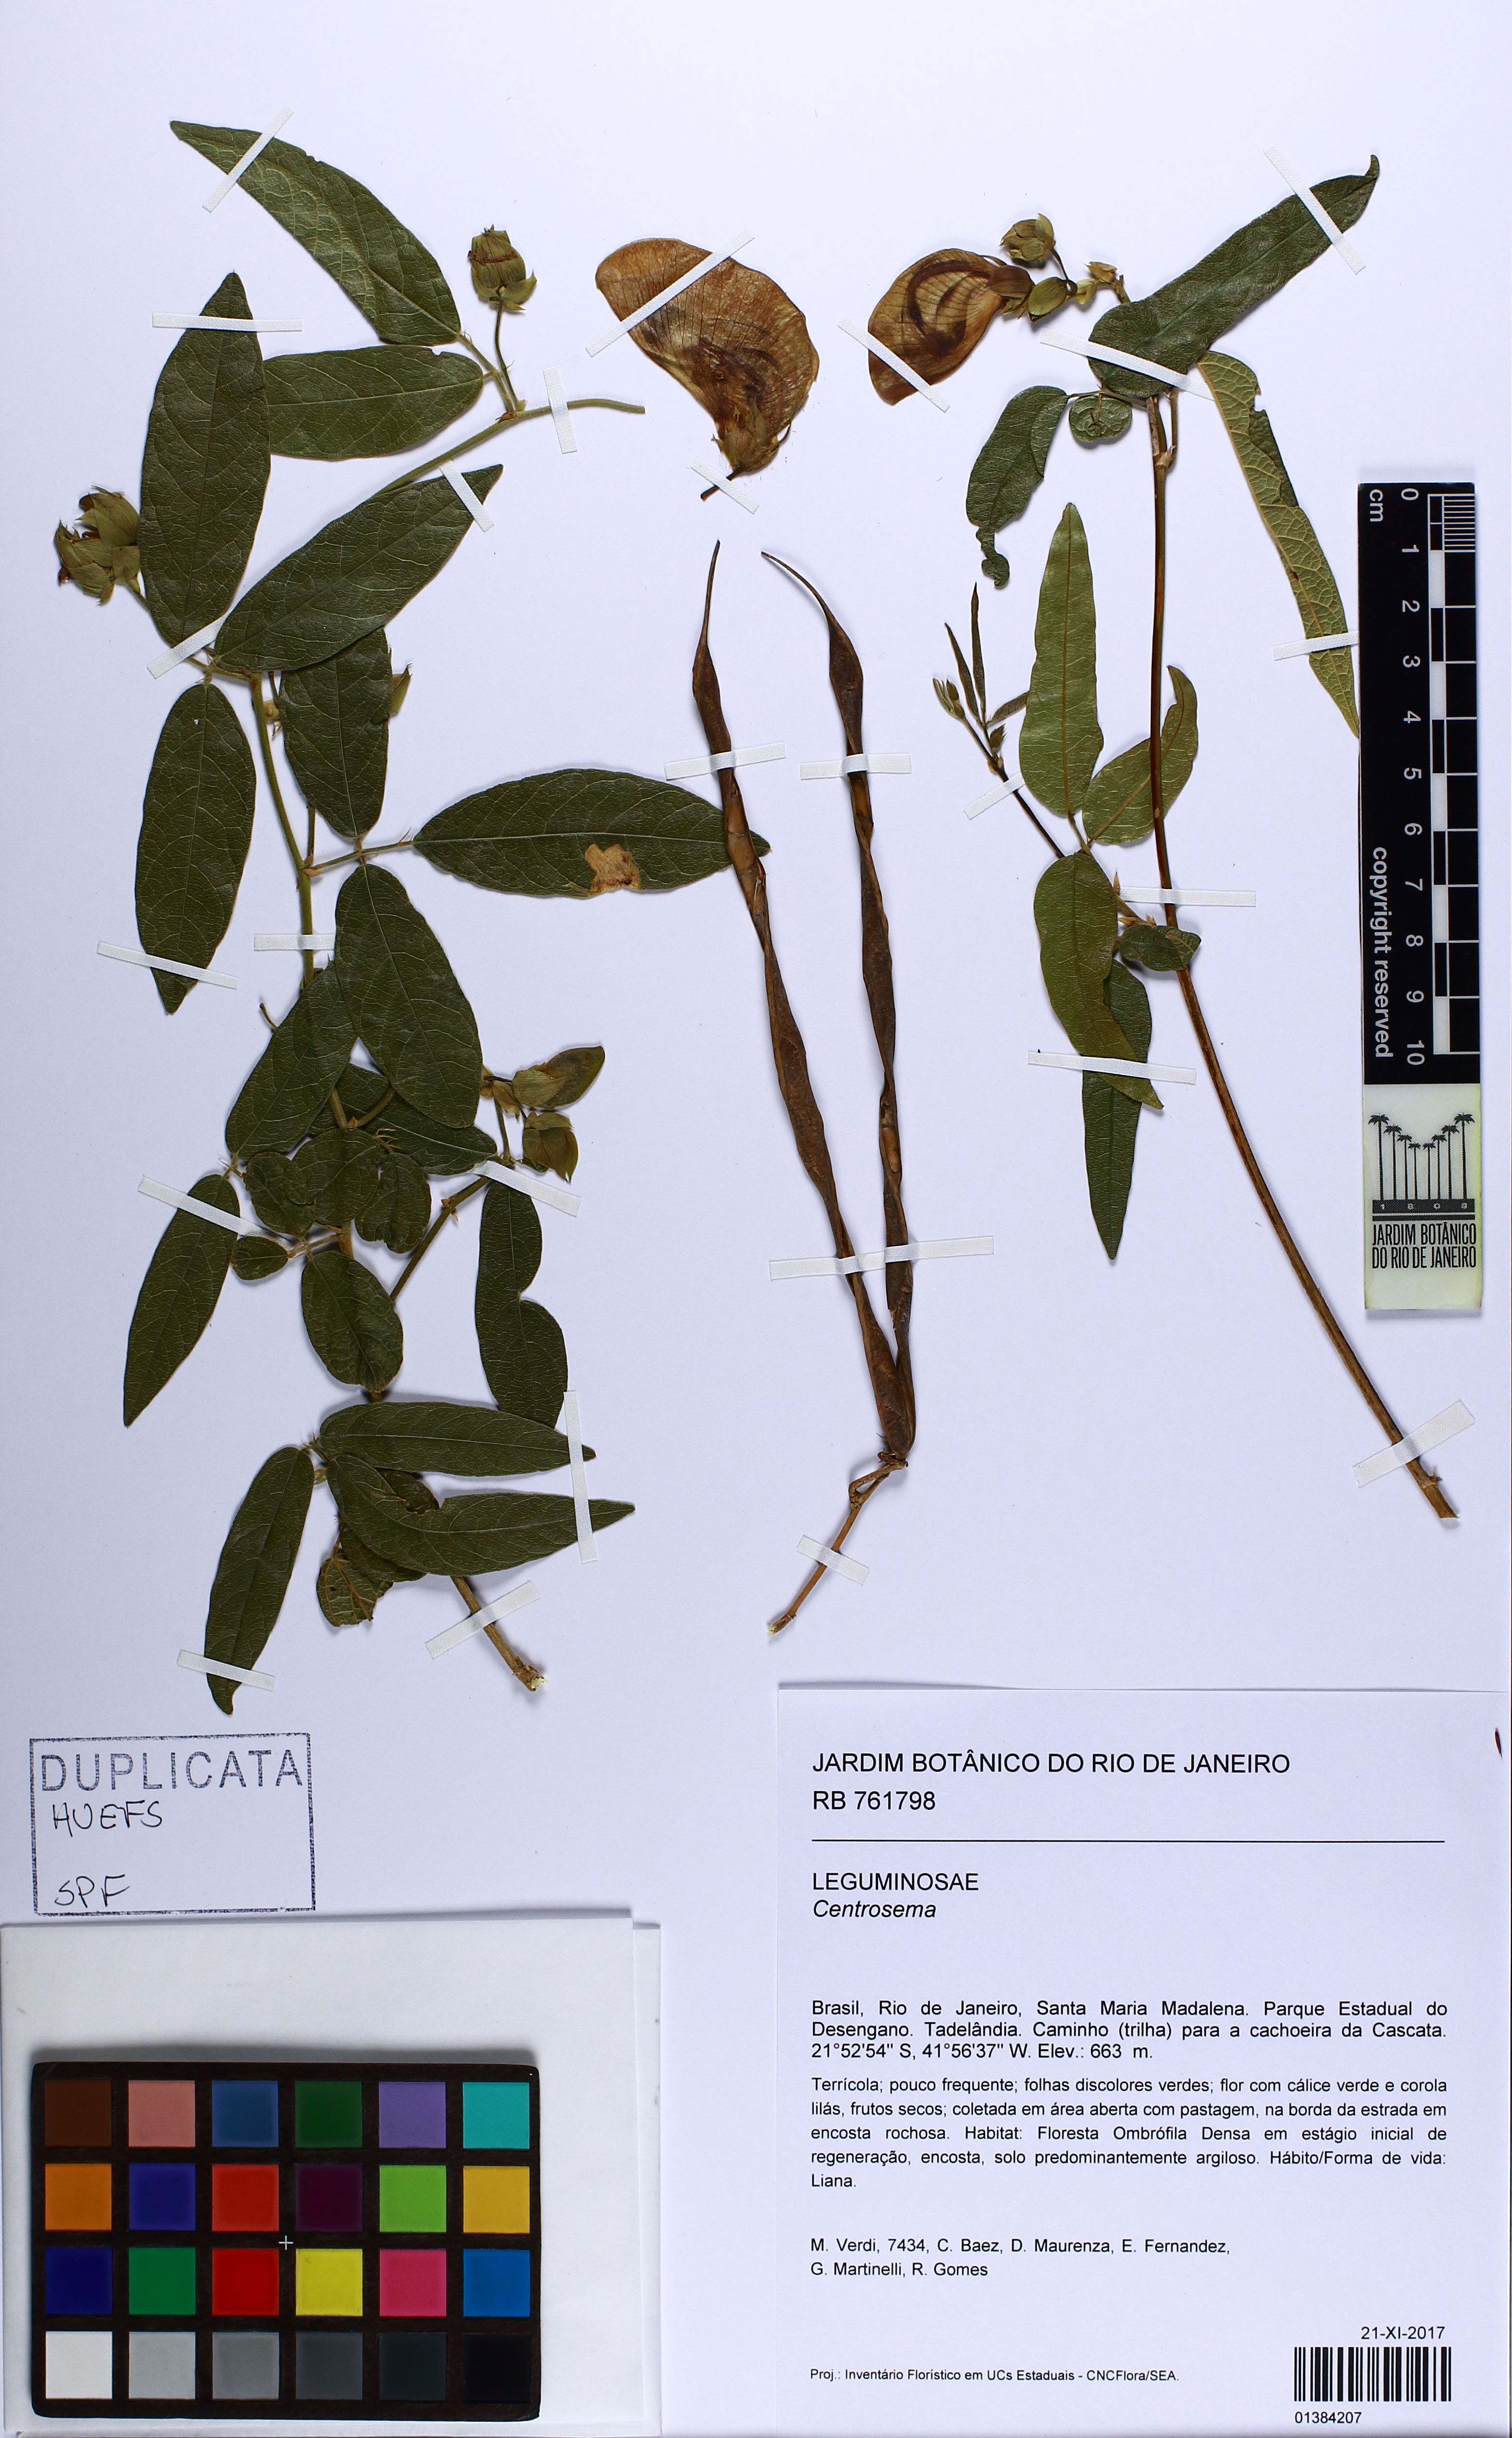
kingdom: Plantae
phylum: Tracheophyta
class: Magnoliopsida
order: Fabales
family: Fabaceae
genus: Centrosema
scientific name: Centrosema
